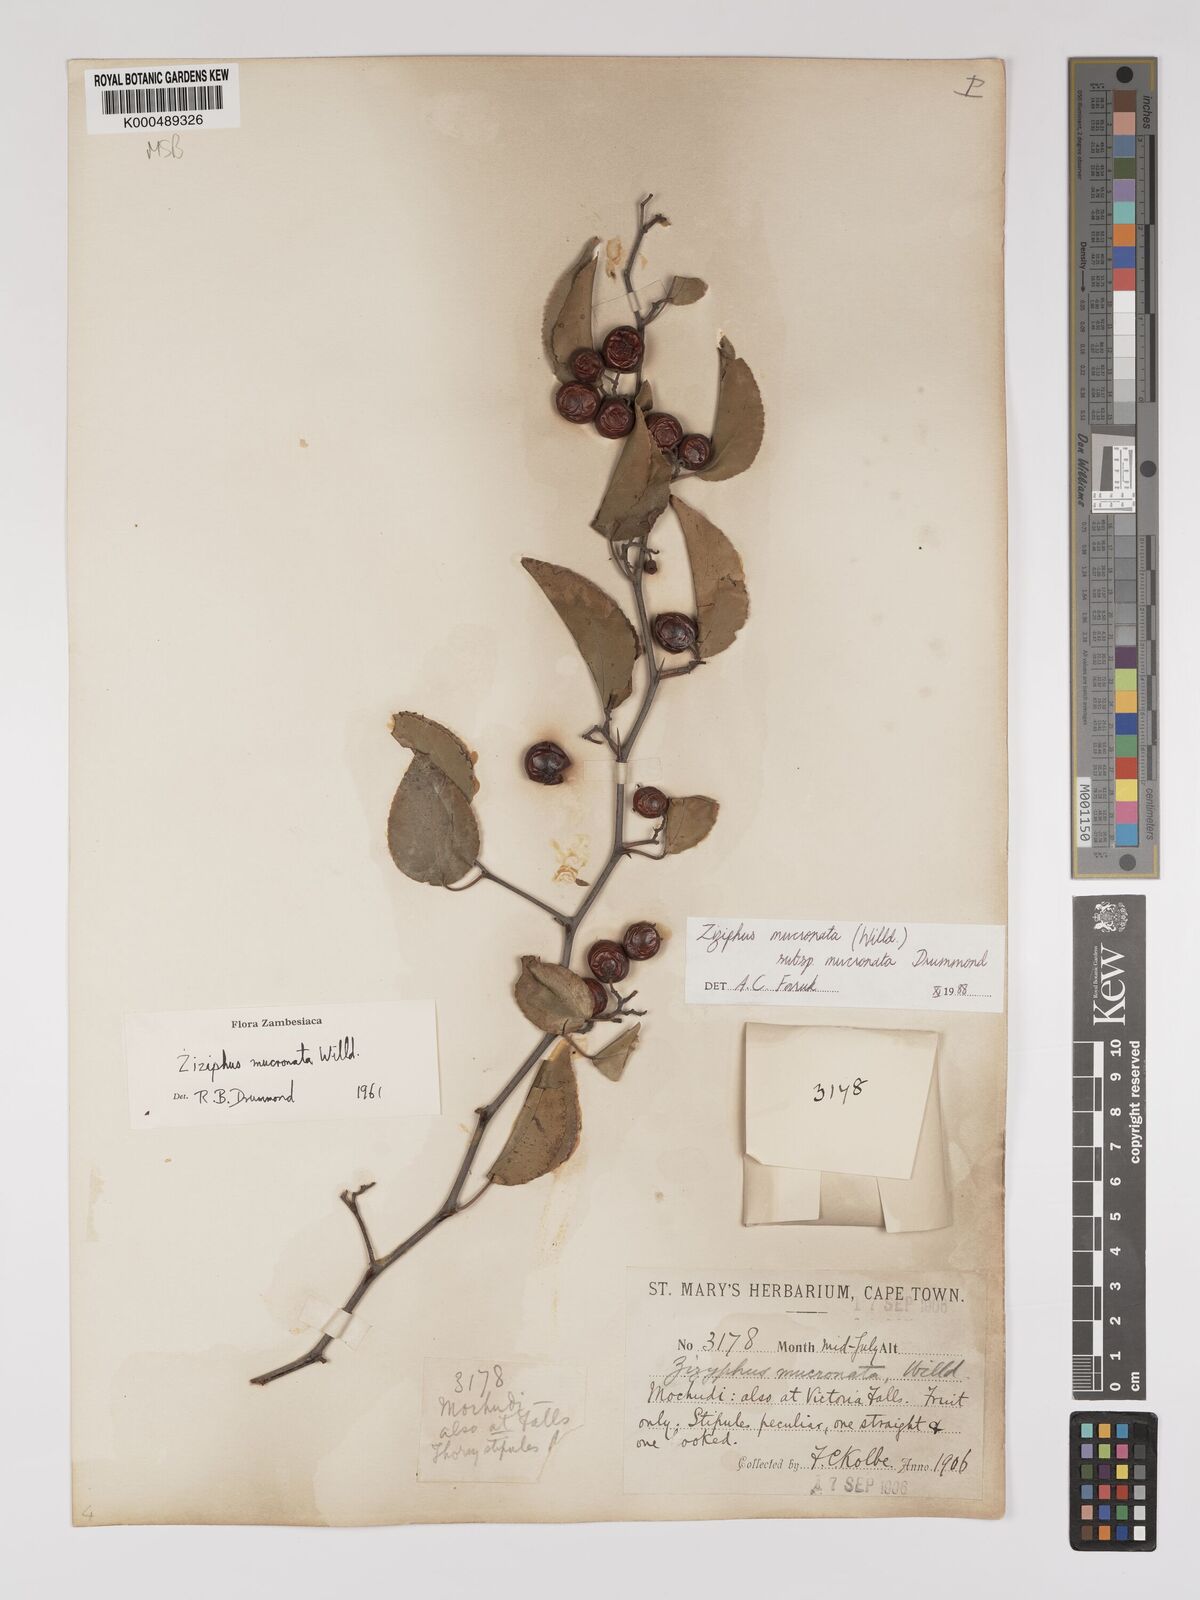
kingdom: Plantae
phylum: Tracheophyta
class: Magnoliopsida
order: Rosales
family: Rhamnaceae
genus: Ziziphus
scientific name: Ziziphus mucronata
